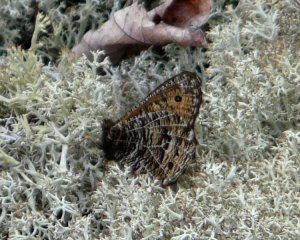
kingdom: Animalia
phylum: Arthropoda
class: Insecta
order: Lepidoptera
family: Nymphalidae
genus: Oeneis
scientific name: Oeneis chryxus
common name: Chryxus Arctic
